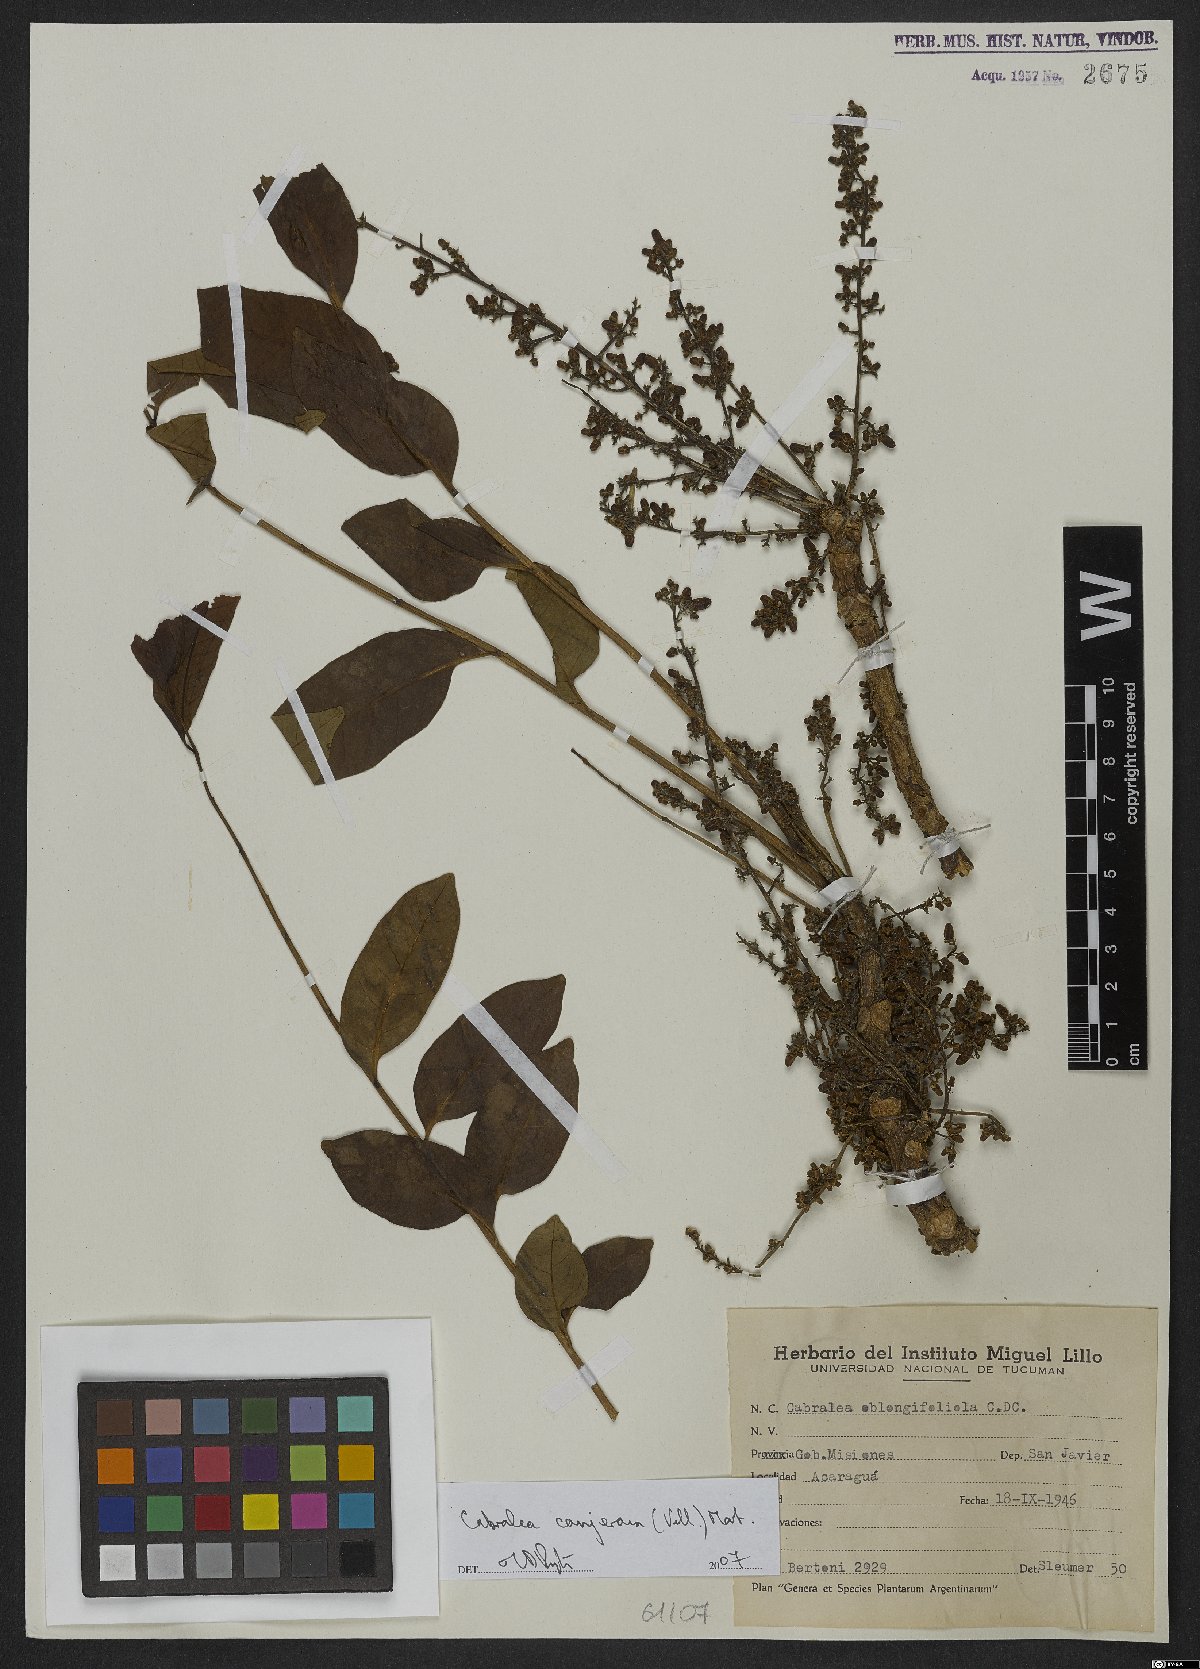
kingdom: Plantae
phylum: Tracheophyta
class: Magnoliopsida
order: Sapindales
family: Meliaceae
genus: Cabralea
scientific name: Cabralea canjerana
